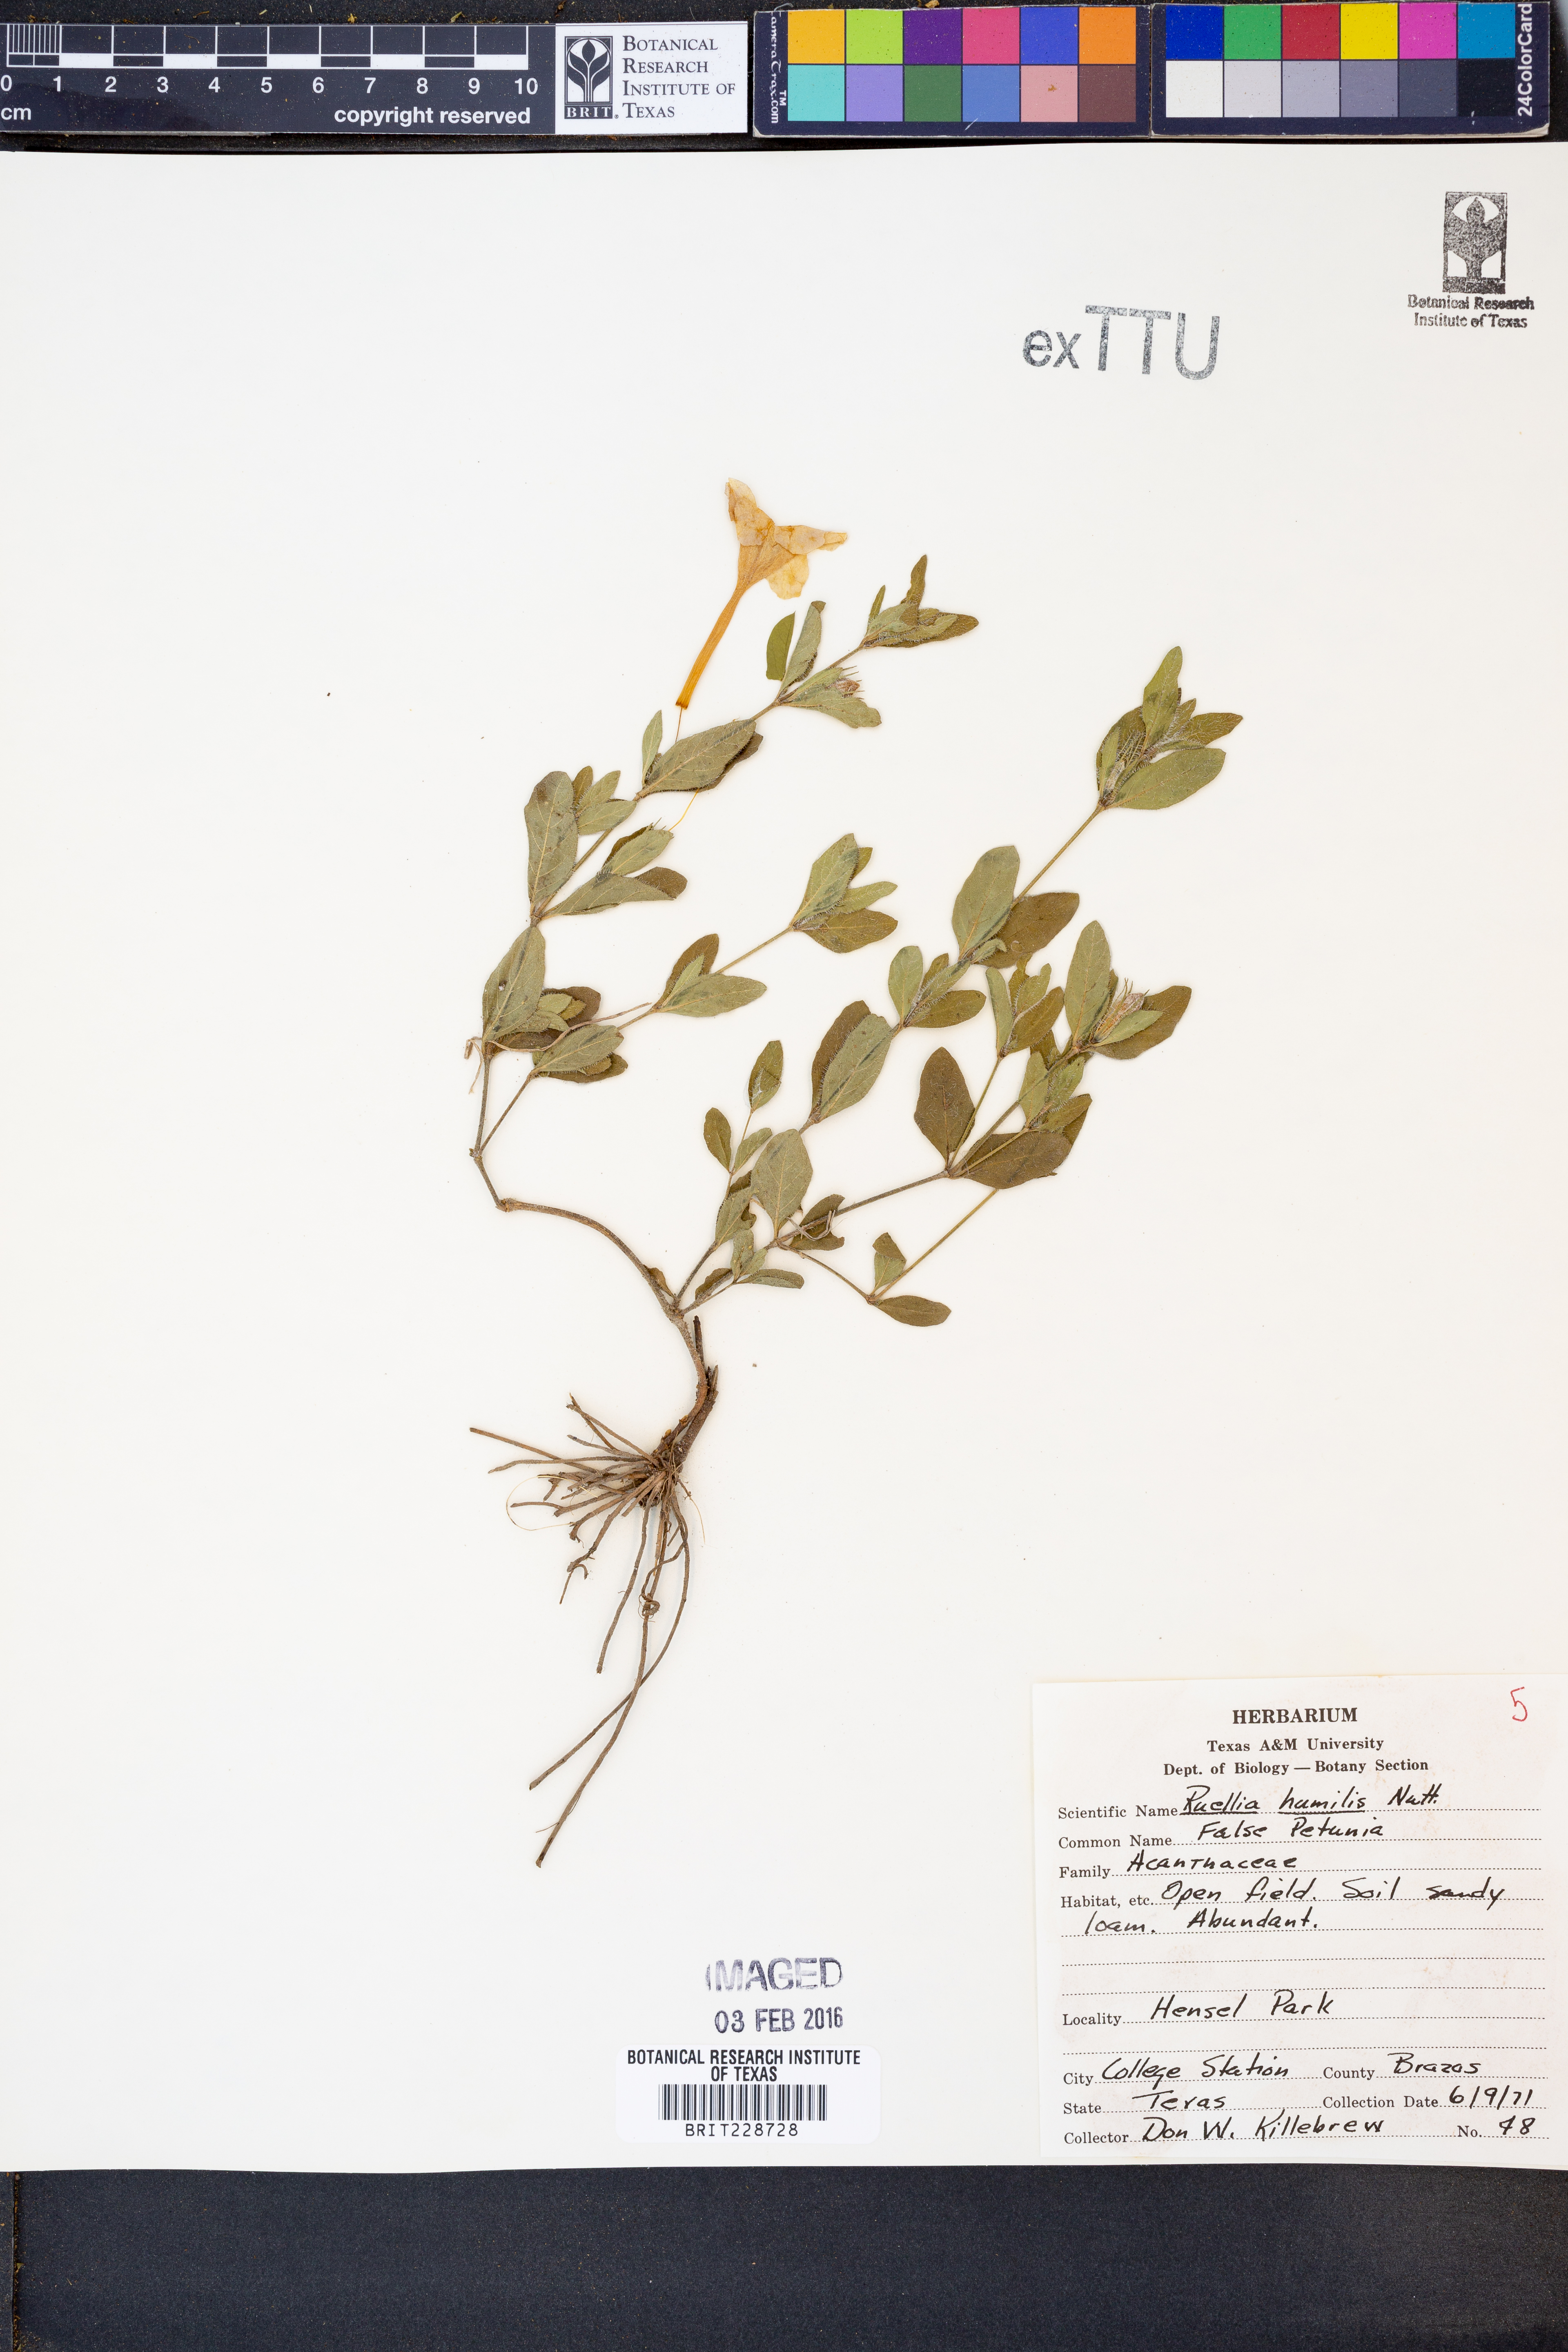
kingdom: Plantae
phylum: Tracheophyta
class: Magnoliopsida
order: Lamiales
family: Acanthaceae
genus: Ruellia
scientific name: Ruellia humilis
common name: Fringe-leaf ruellia
